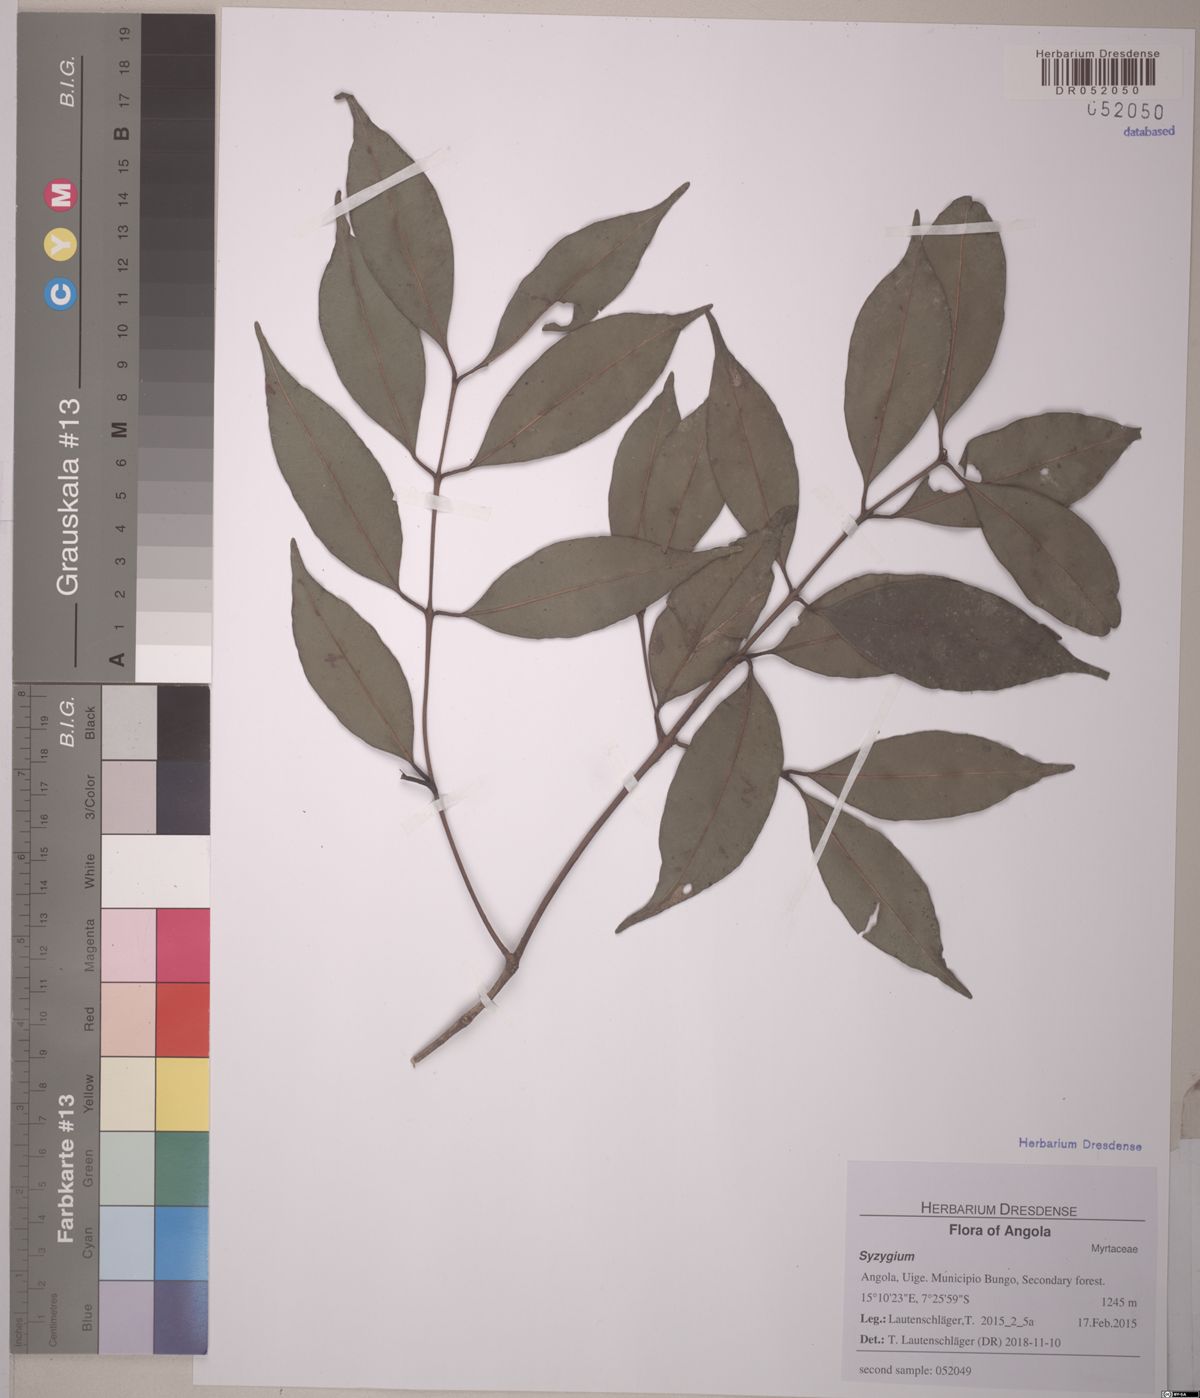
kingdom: Plantae
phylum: Tracheophyta
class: Magnoliopsida
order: Myrtales
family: Myrtaceae
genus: Syzygium
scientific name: Syzygium
